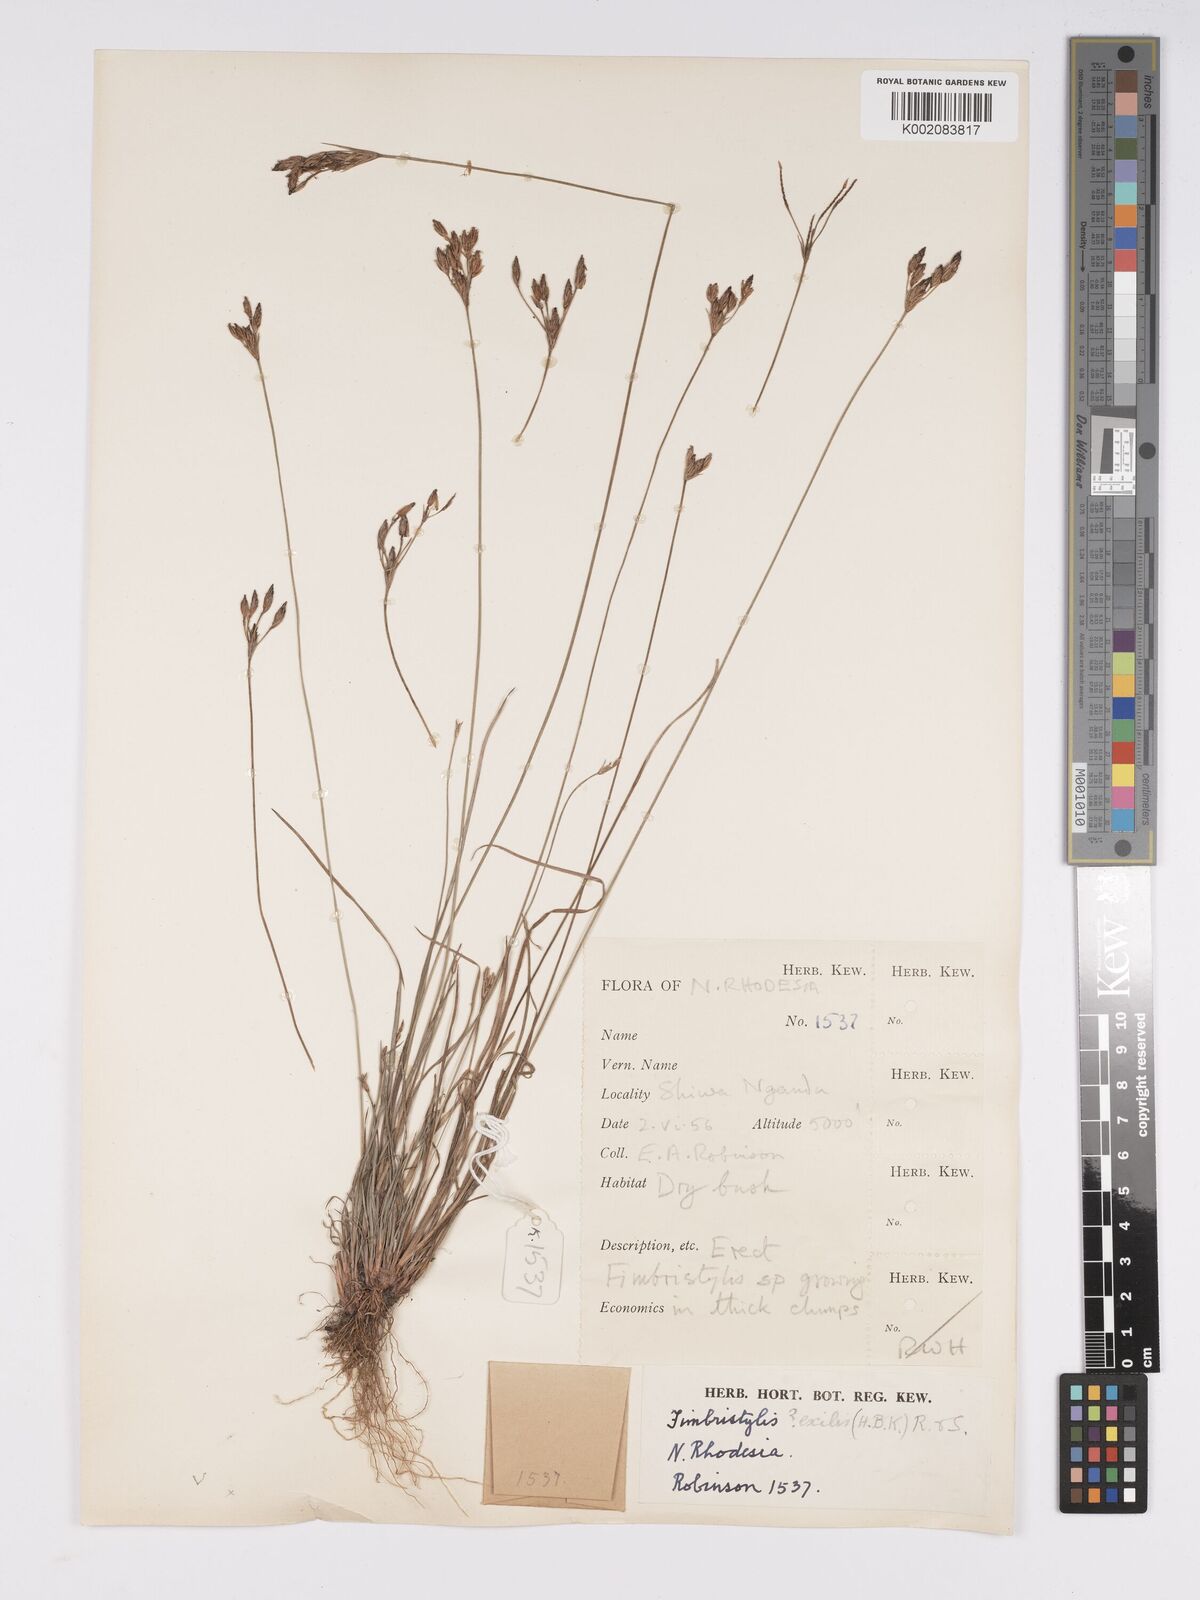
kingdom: Plantae
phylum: Tracheophyta
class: Liliopsida
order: Poales
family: Cyperaceae
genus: Bulbostylis
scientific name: Bulbostylis hispidula
